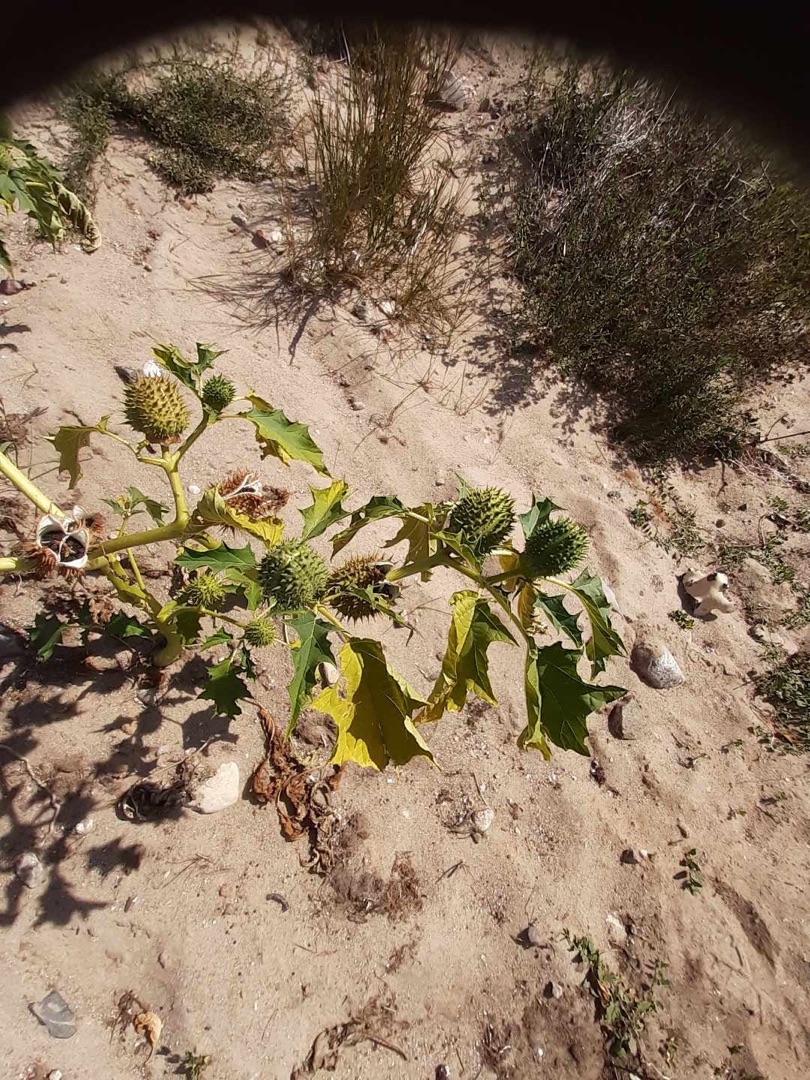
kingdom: Plantae
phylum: Tracheophyta
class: Magnoliopsida
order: Solanales
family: Solanaceae
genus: Datura
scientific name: Datura stramonium
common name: Pigæble
